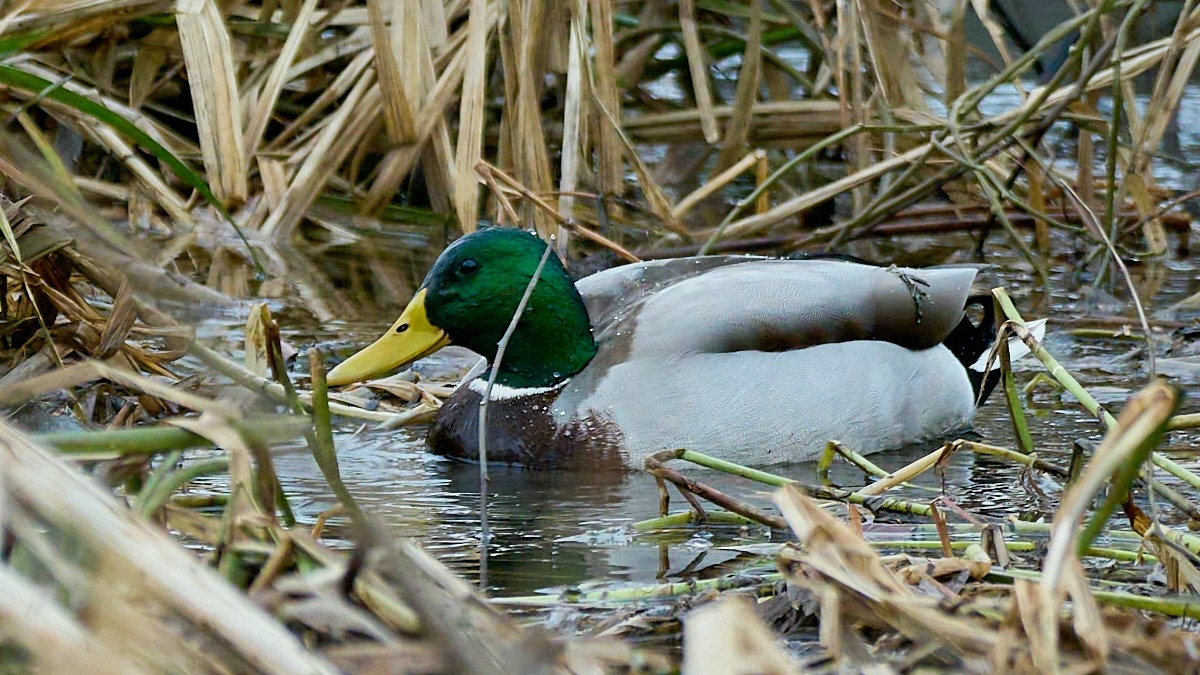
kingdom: Animalia
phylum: Chordata
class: Aves
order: Anseriformes
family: Anatidae
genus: Anas
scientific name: Anas platyrhynchos
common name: Gråand
